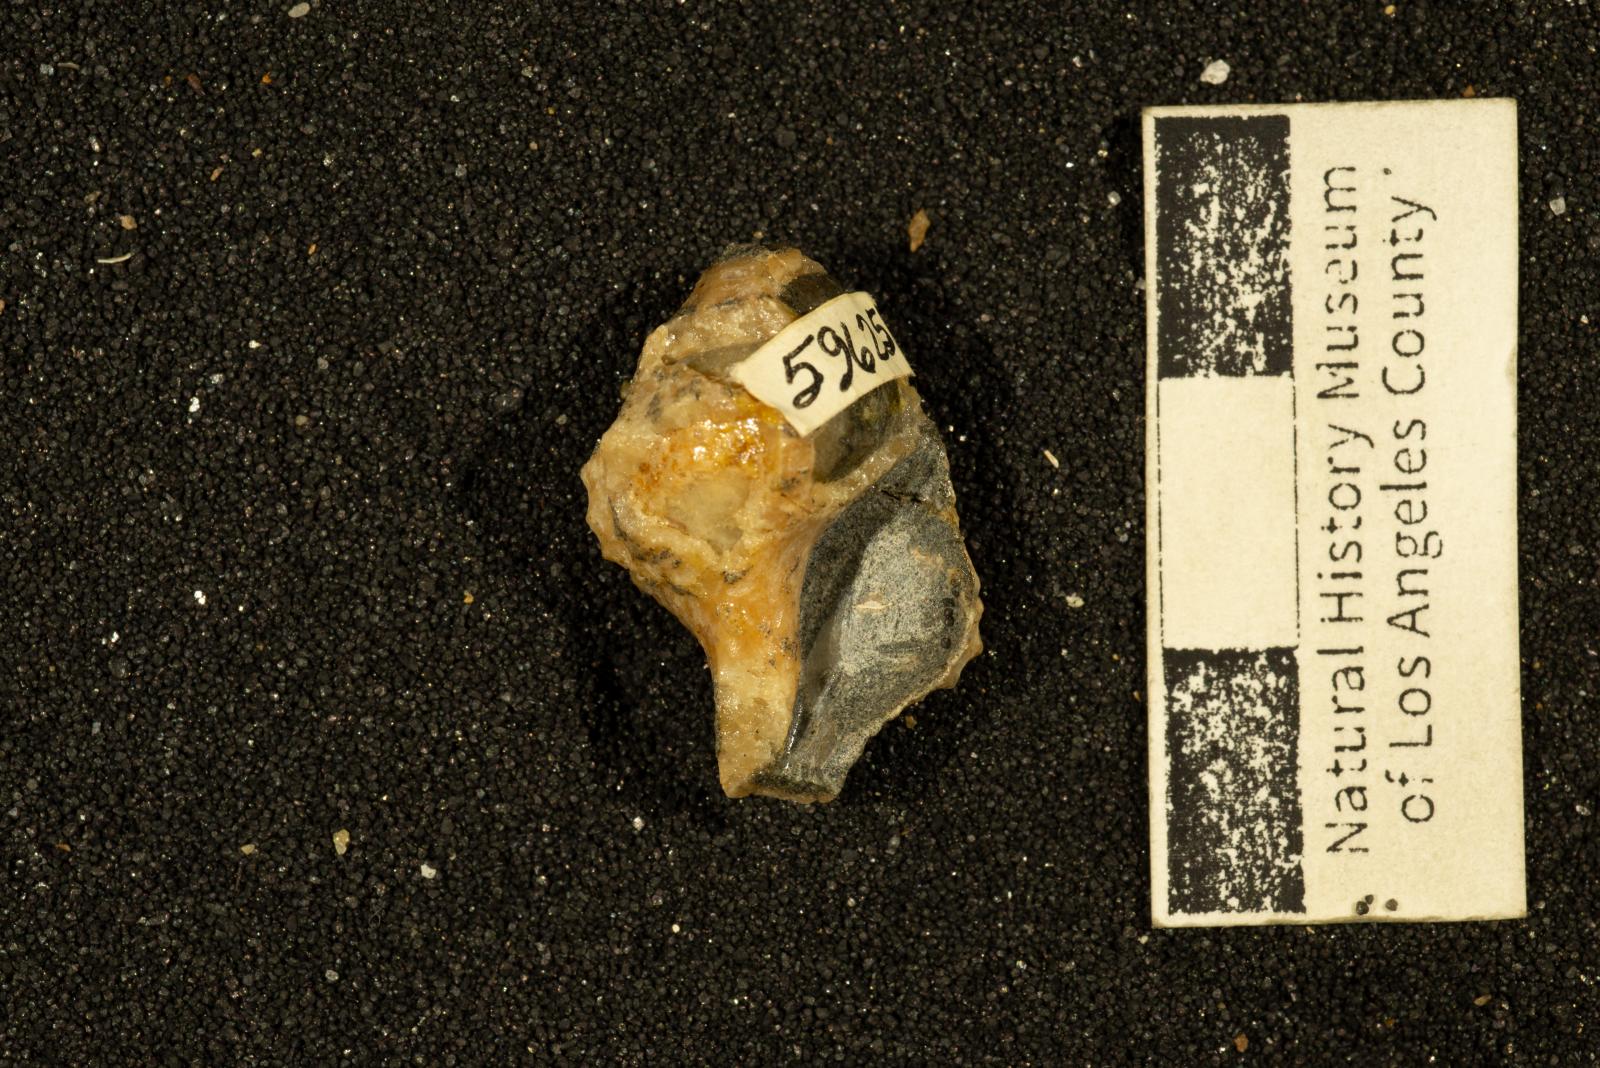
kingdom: Animalia
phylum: Mollusca
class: Gastropoda
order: Neogastropoda
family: Perissityidae
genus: Perissitys
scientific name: Perissitys elaphia
